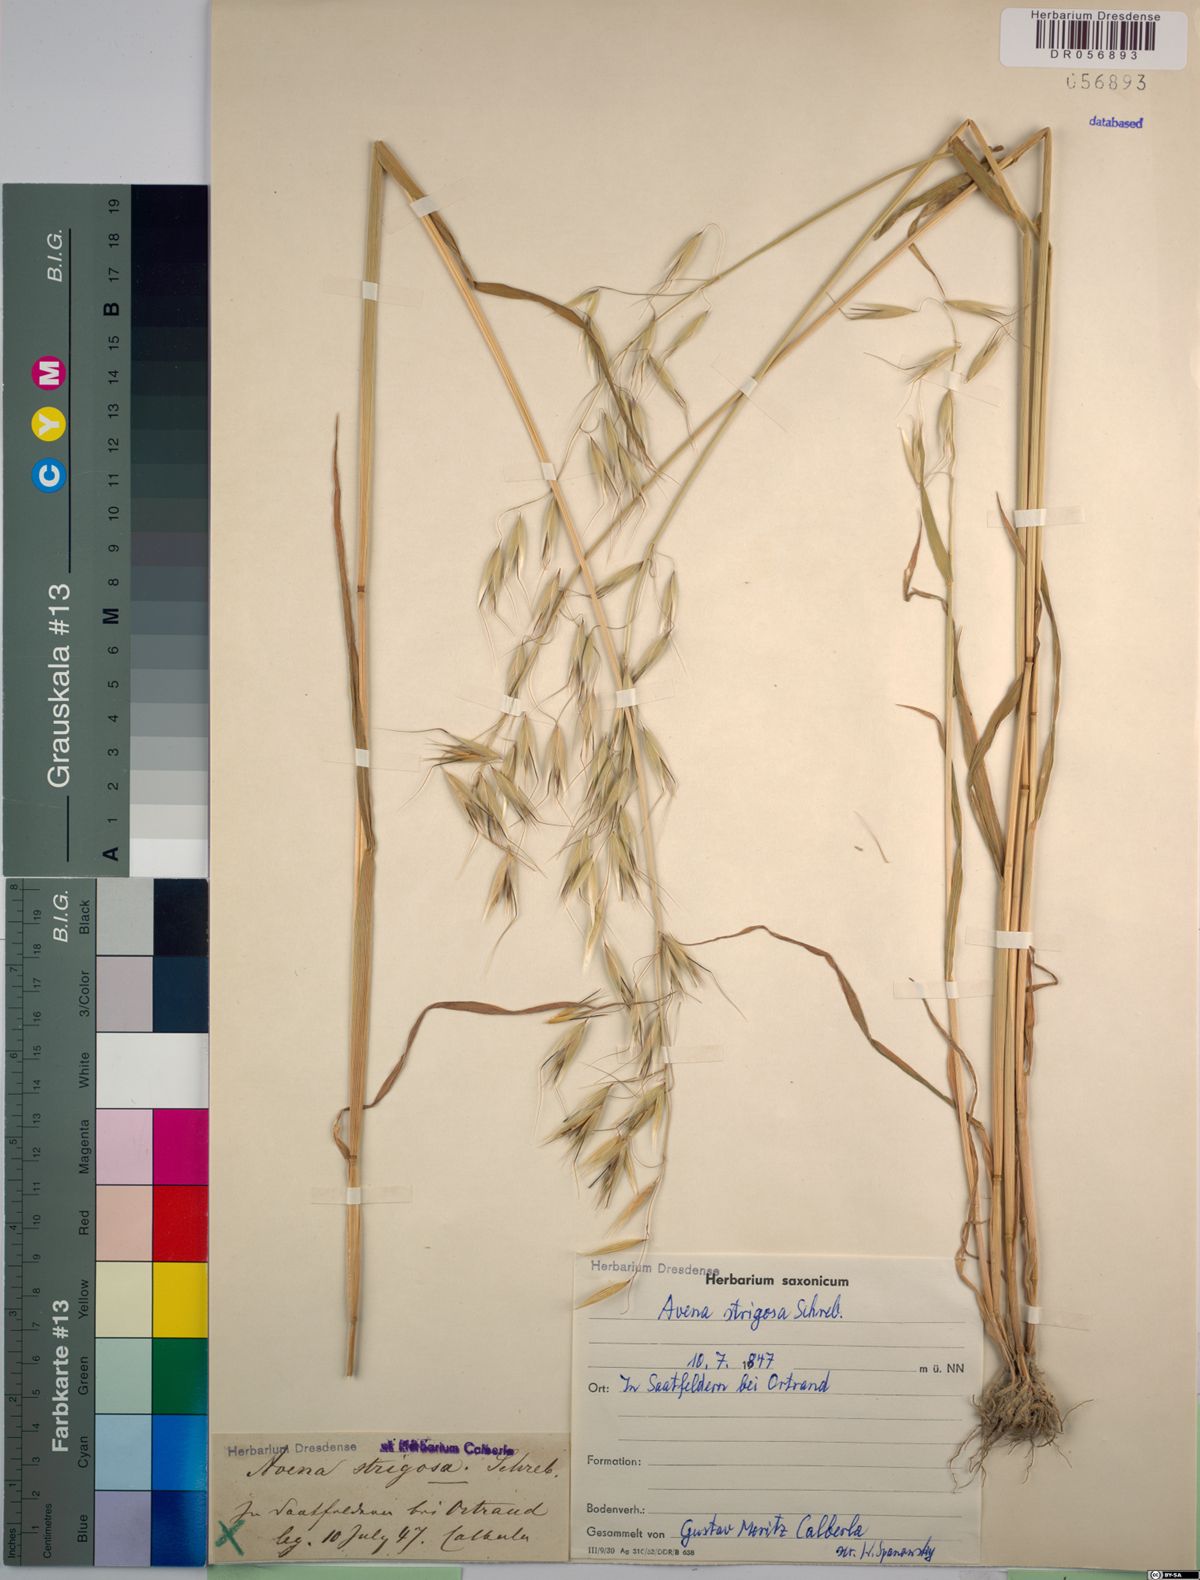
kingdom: Plantae
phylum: Tracheophyta
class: Liliopsida
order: Poales
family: Poaceae
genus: Avena
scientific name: Avena strigosa
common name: Bristle oat
